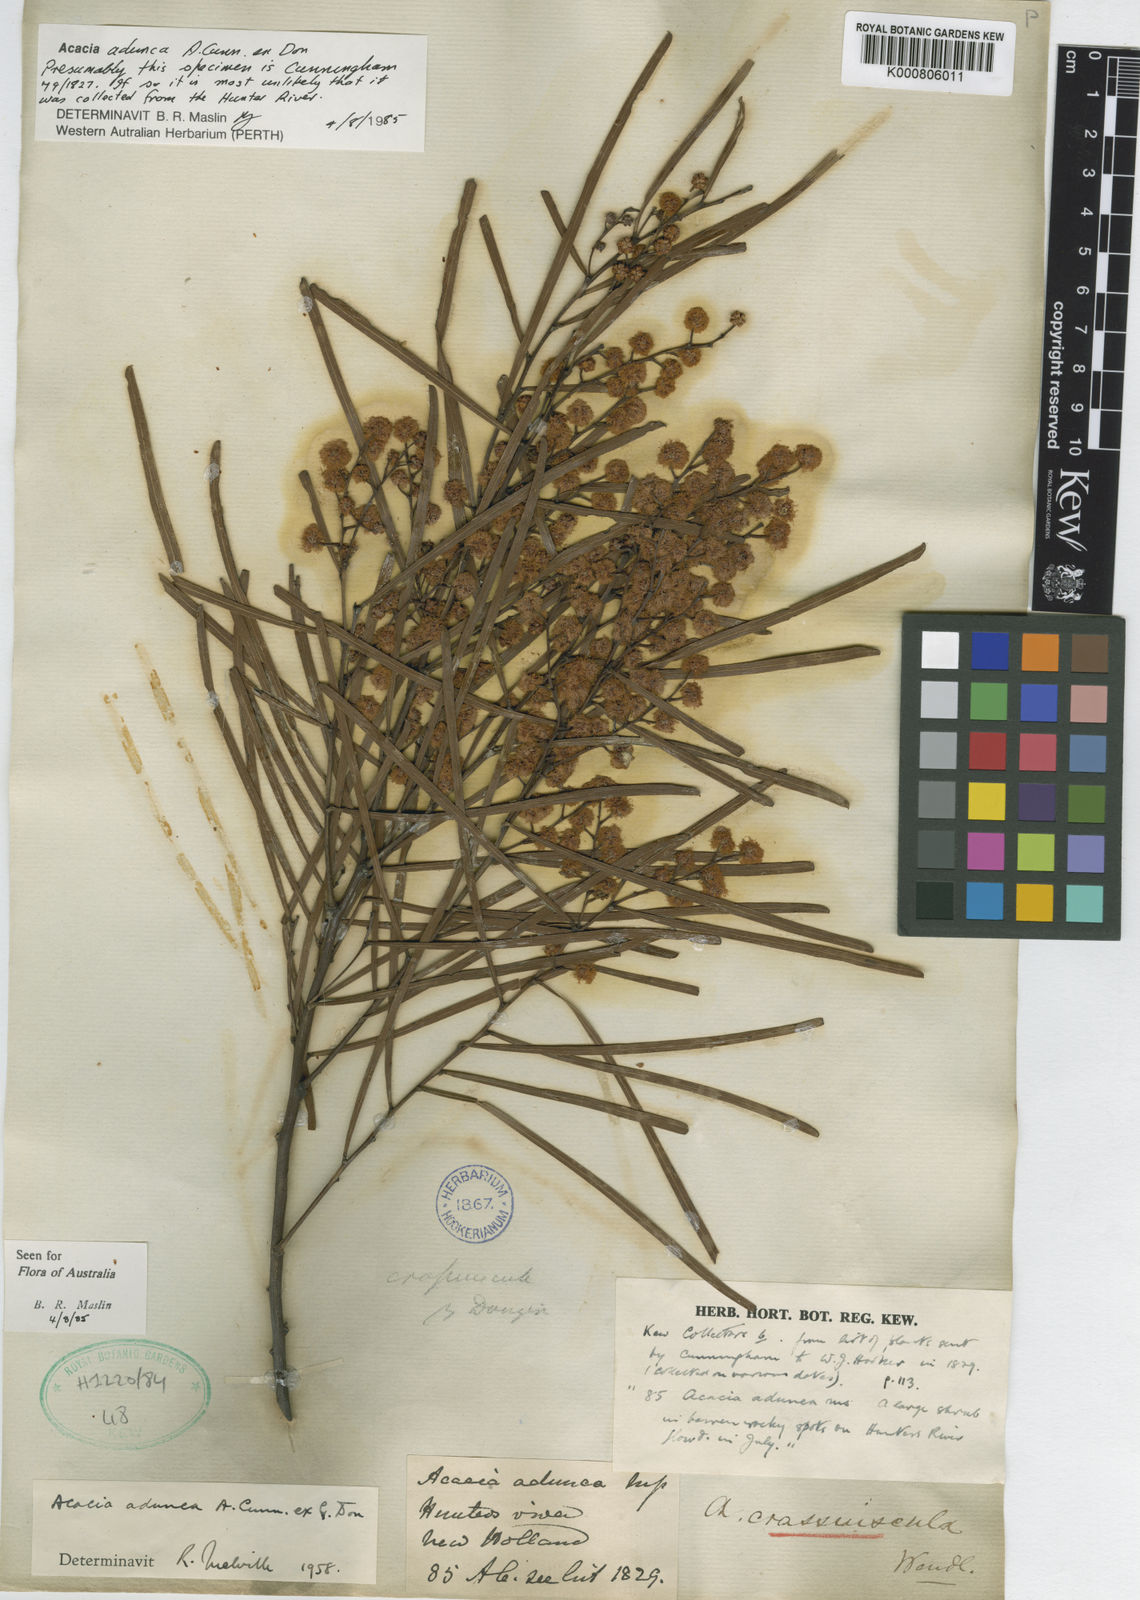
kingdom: Plantae
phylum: Tracheophyta
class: Magnoliopsida
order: Fabales
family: Fabaceae
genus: Acacia
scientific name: Acacia adunca
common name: Wallangarra wattle
